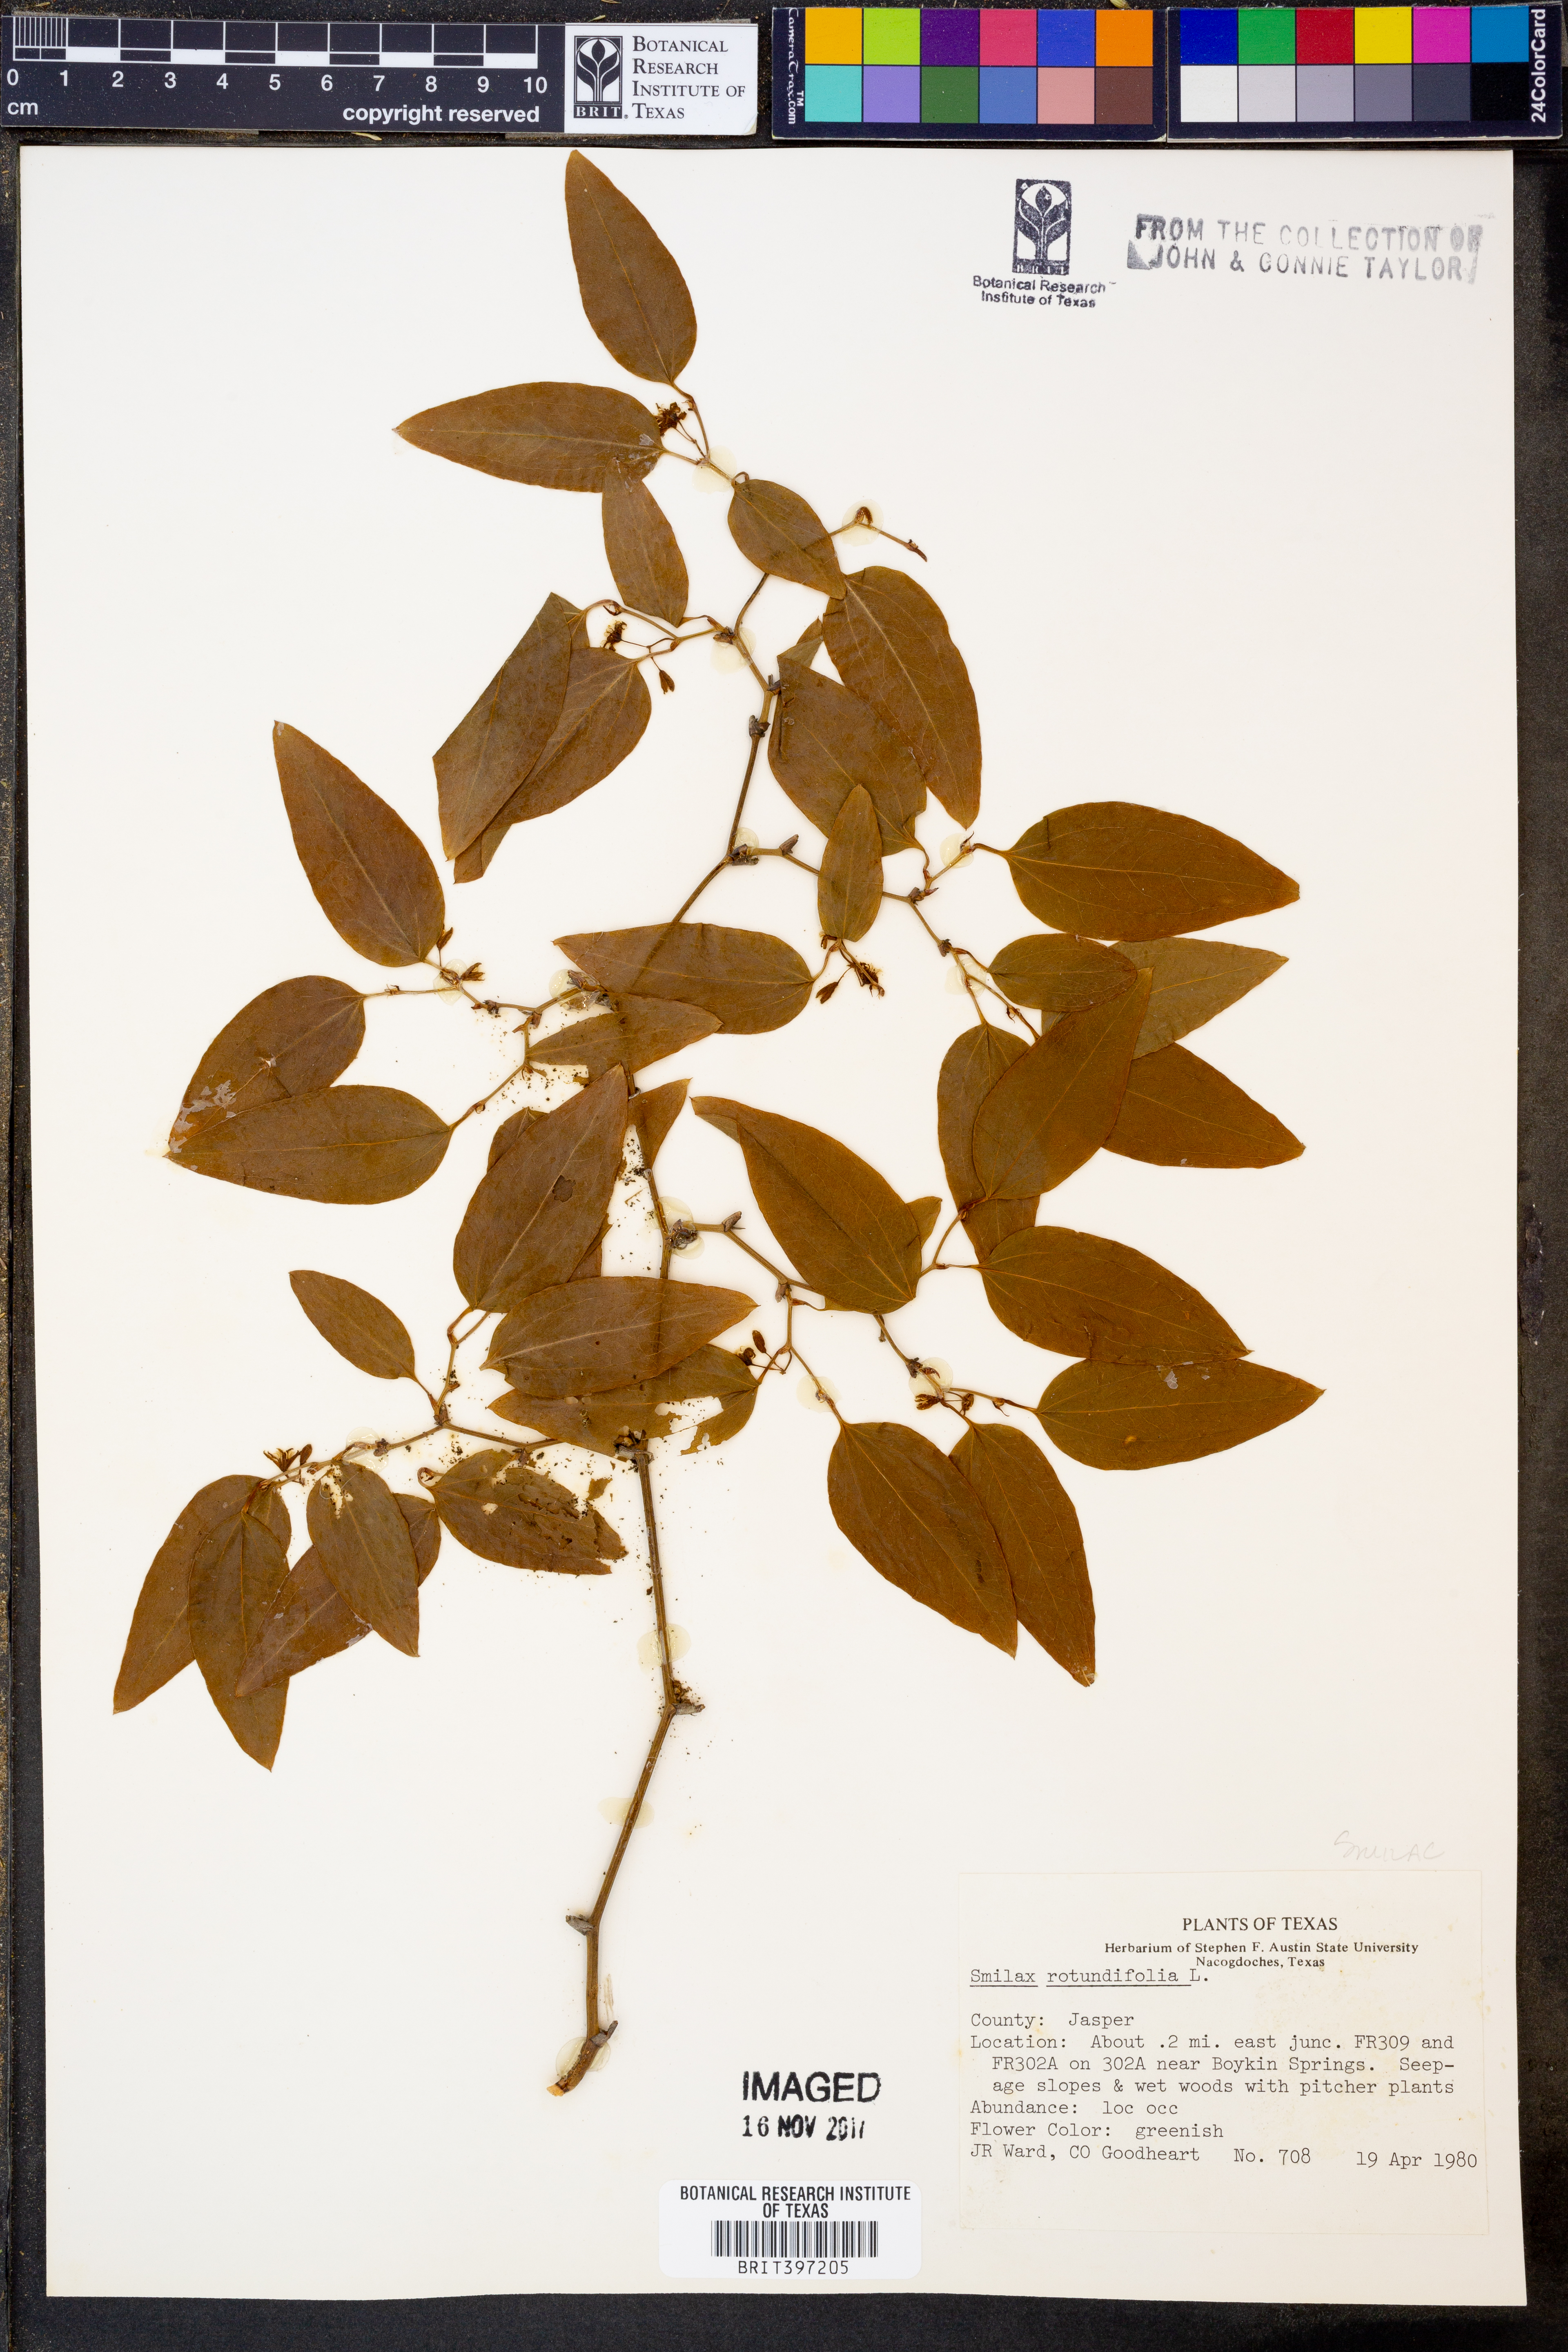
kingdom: Plantae
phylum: Tracheophyta
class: Liliopsida
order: Liliales
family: Smilacaceae
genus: Smilax
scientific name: Smilax rotundifolia
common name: Bullbriar
